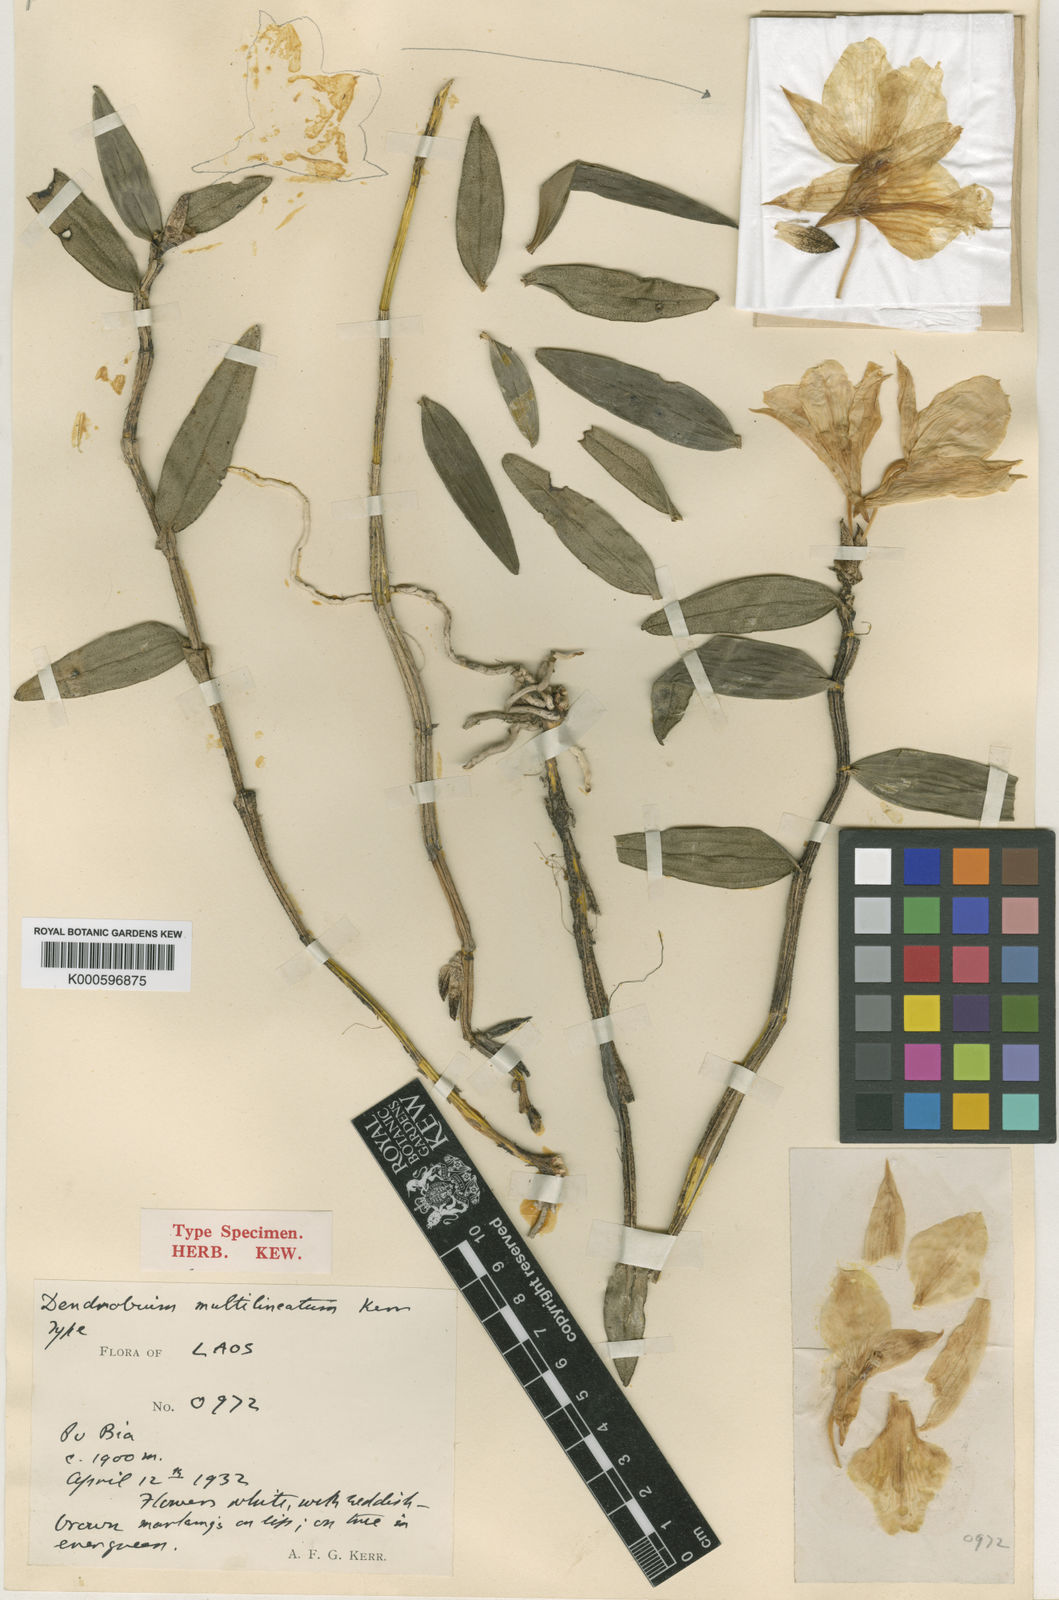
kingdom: Plantae
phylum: Tracheophyta
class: Liliopsida
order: Asparagales
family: Orchidaceae
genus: Dendrobium
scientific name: Dendrobium multilineatum
